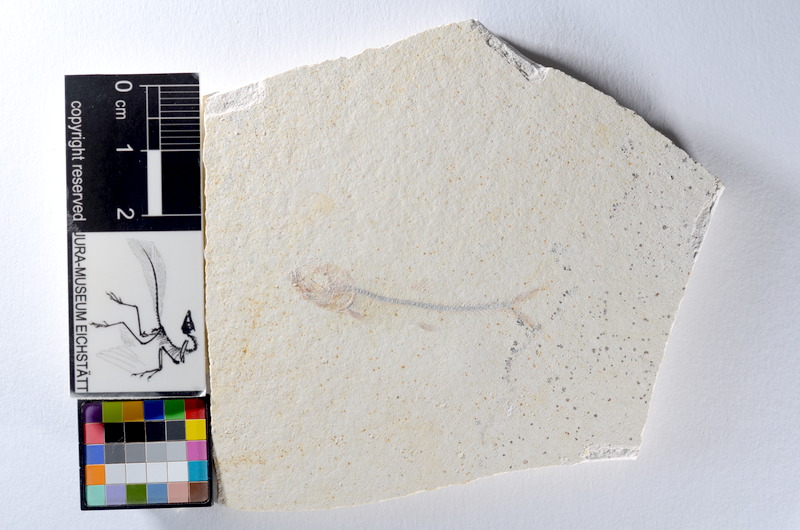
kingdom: Animalia
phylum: Chordata
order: Salmoniformes
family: Orthogonikleithridae
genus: Orthogonikleithrus
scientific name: Orthogonikleithrus hoelli
